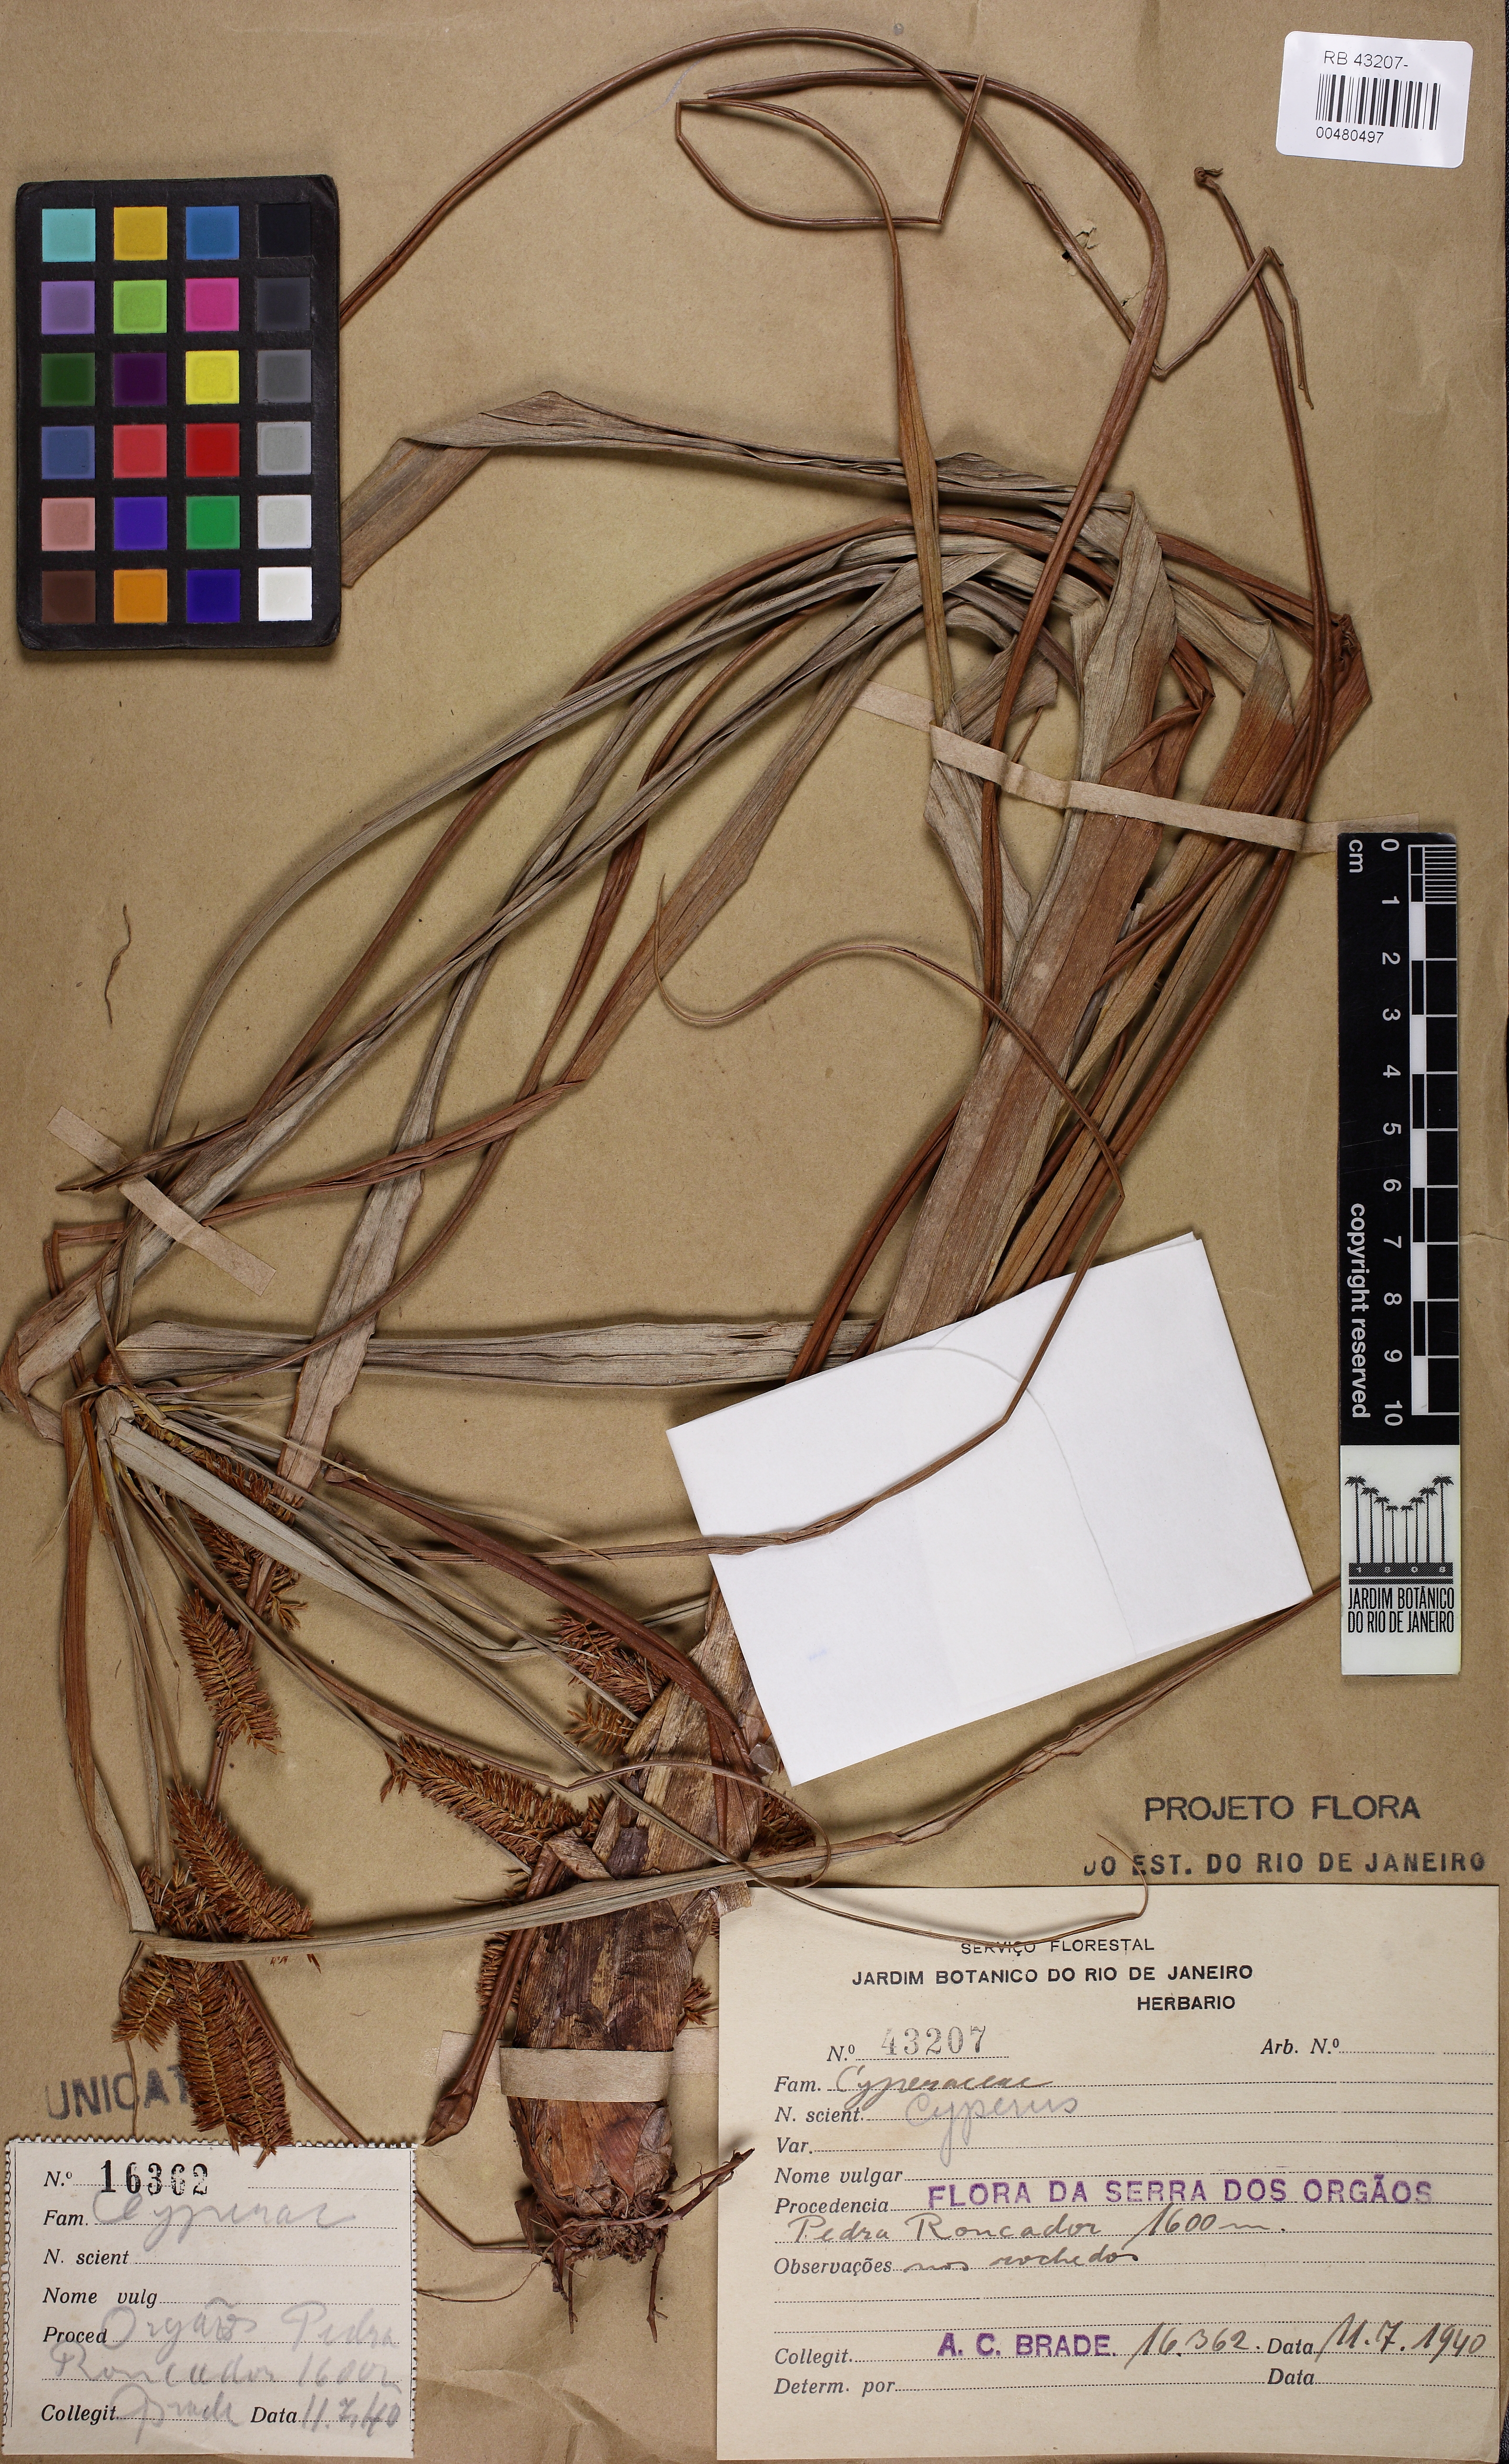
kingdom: Plantae
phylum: Tracheophyta
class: Liliopsida
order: Poales
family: Cyperaceae
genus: Cyperus
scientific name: Cyperus coriifolius
